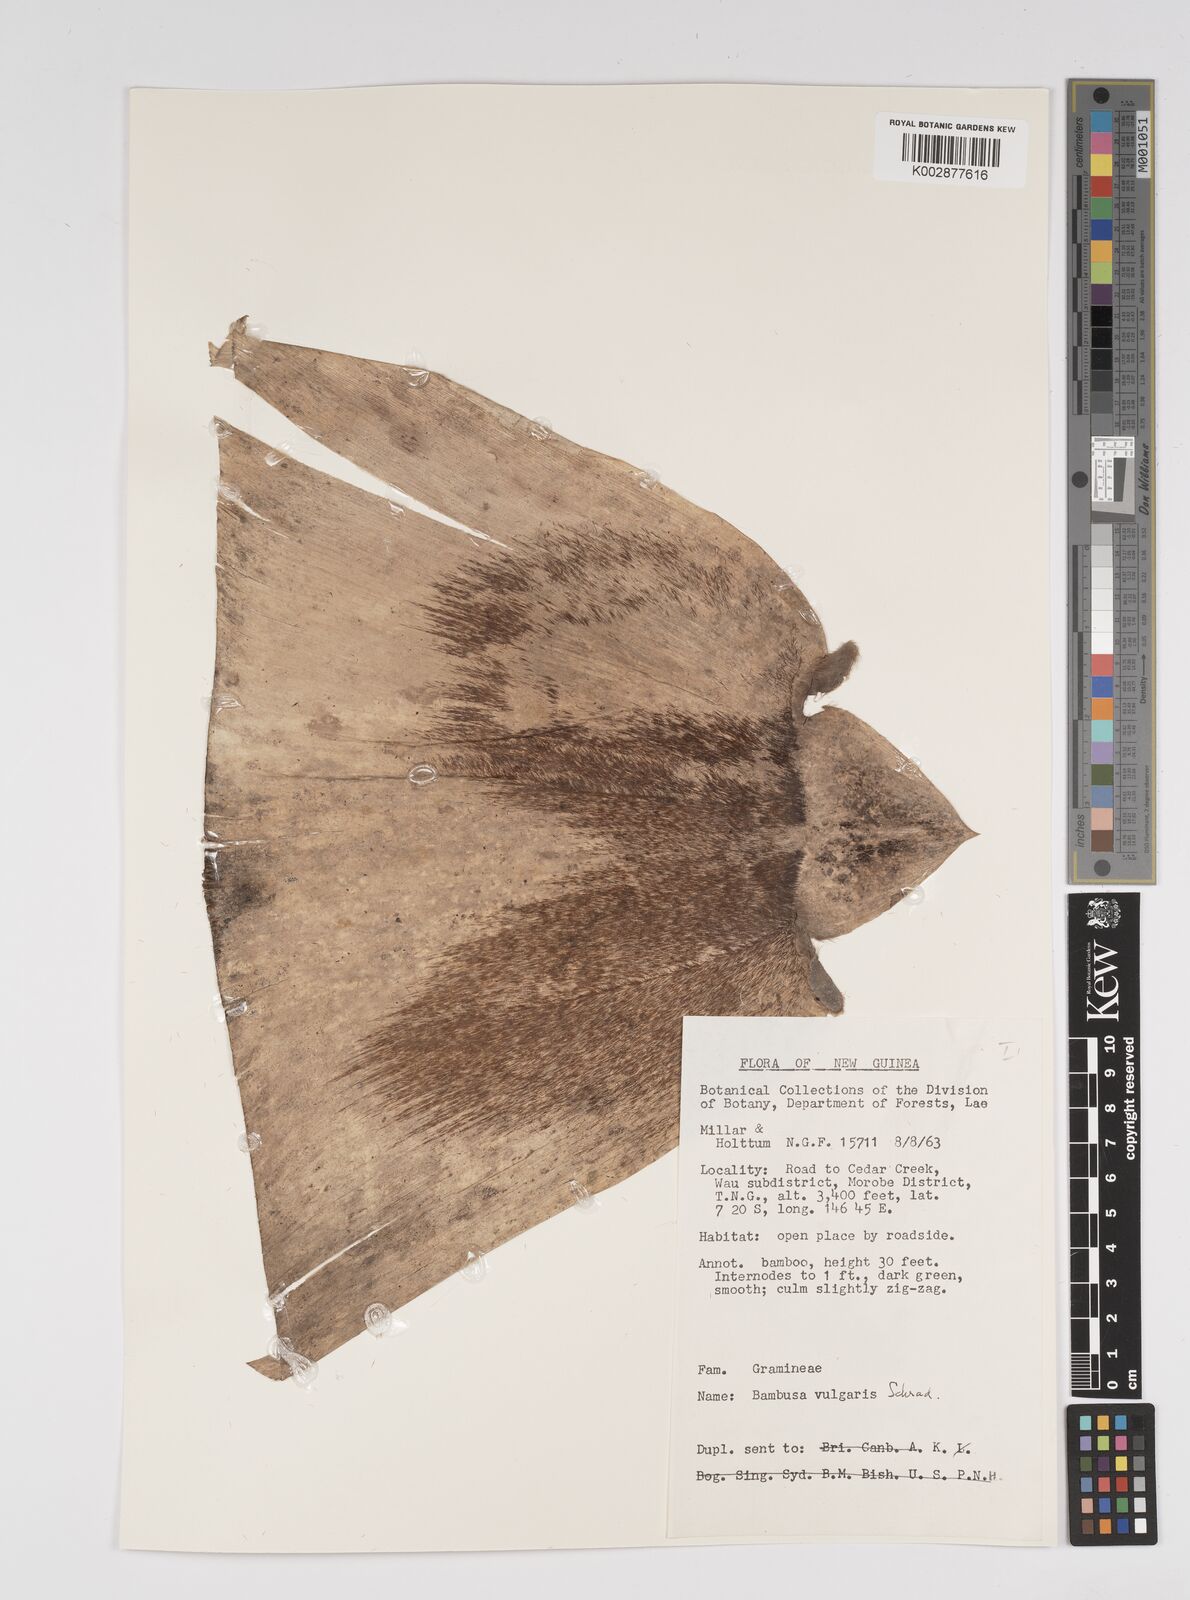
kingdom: Plantae
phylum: Tracheophyta
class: Liliopsida
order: Poales
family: Poaceae
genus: Bambusa
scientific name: Bambusa balcooa
